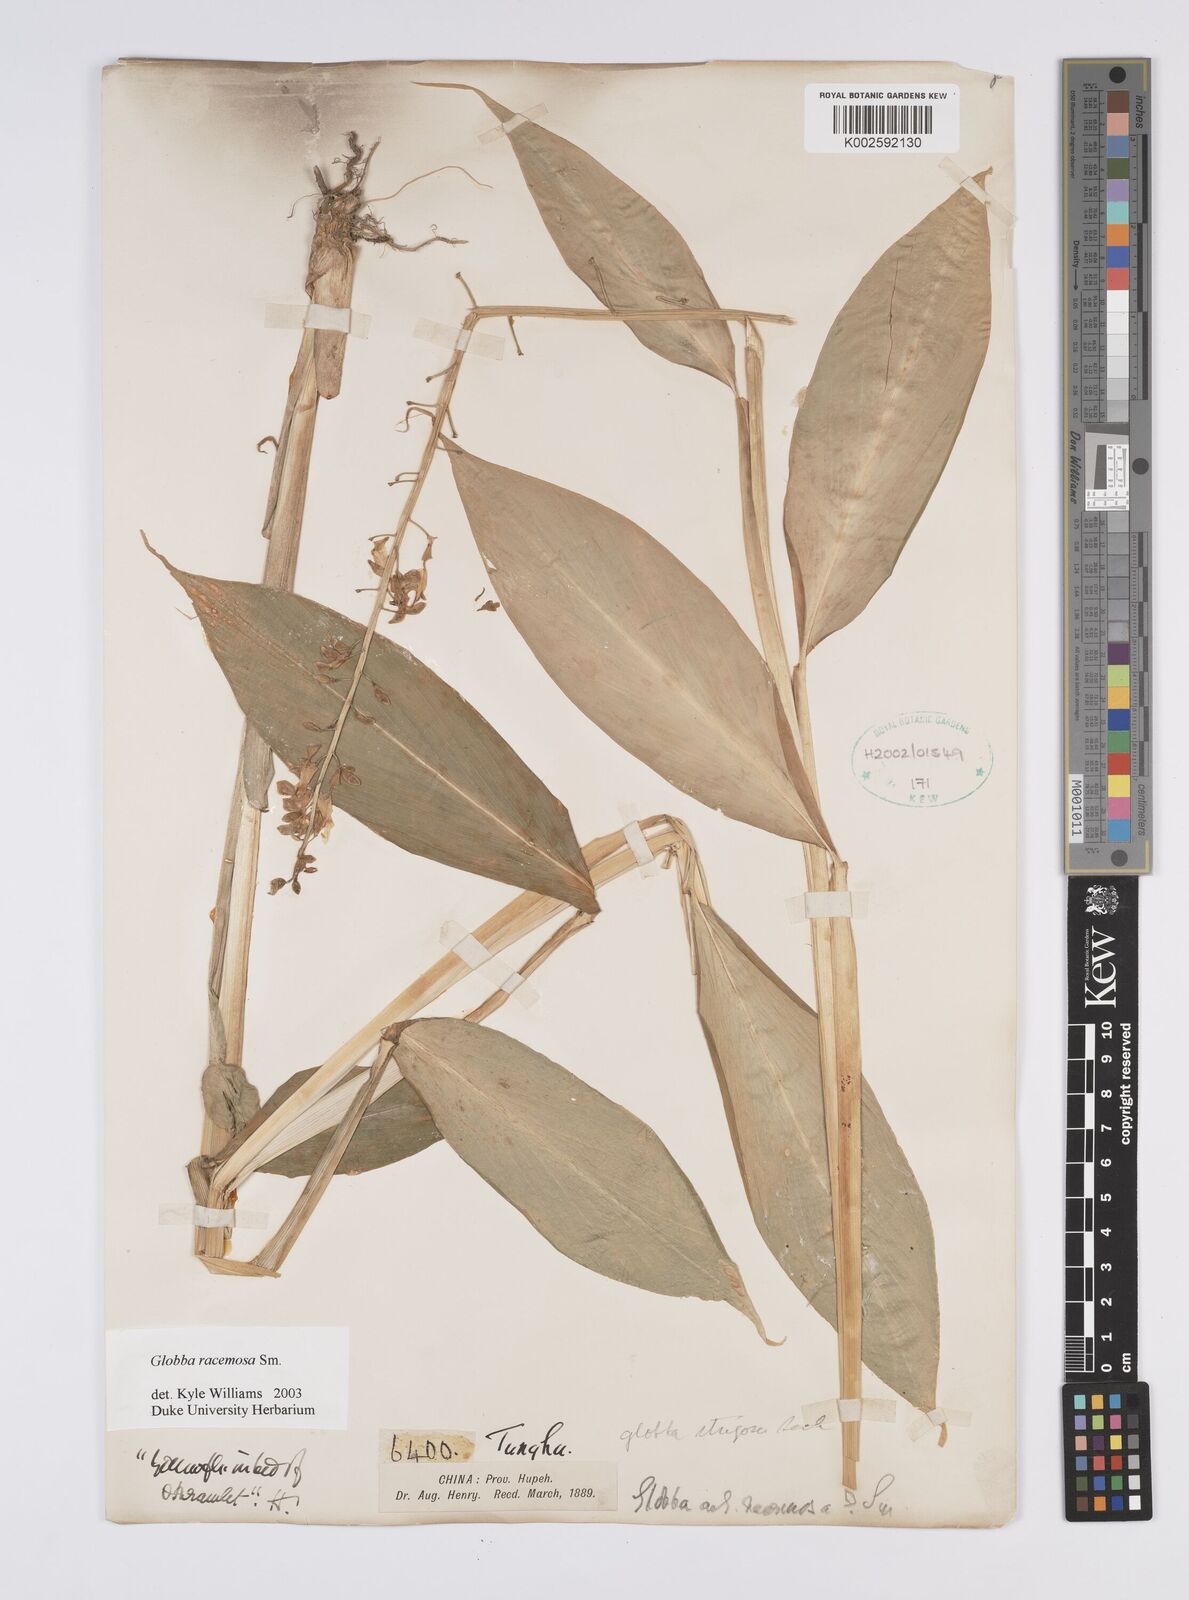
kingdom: Plantae
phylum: Tracheophyta
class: Liliopsida
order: Zingiberales
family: Zingiberaceae
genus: Globba
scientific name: Globba racemosa
